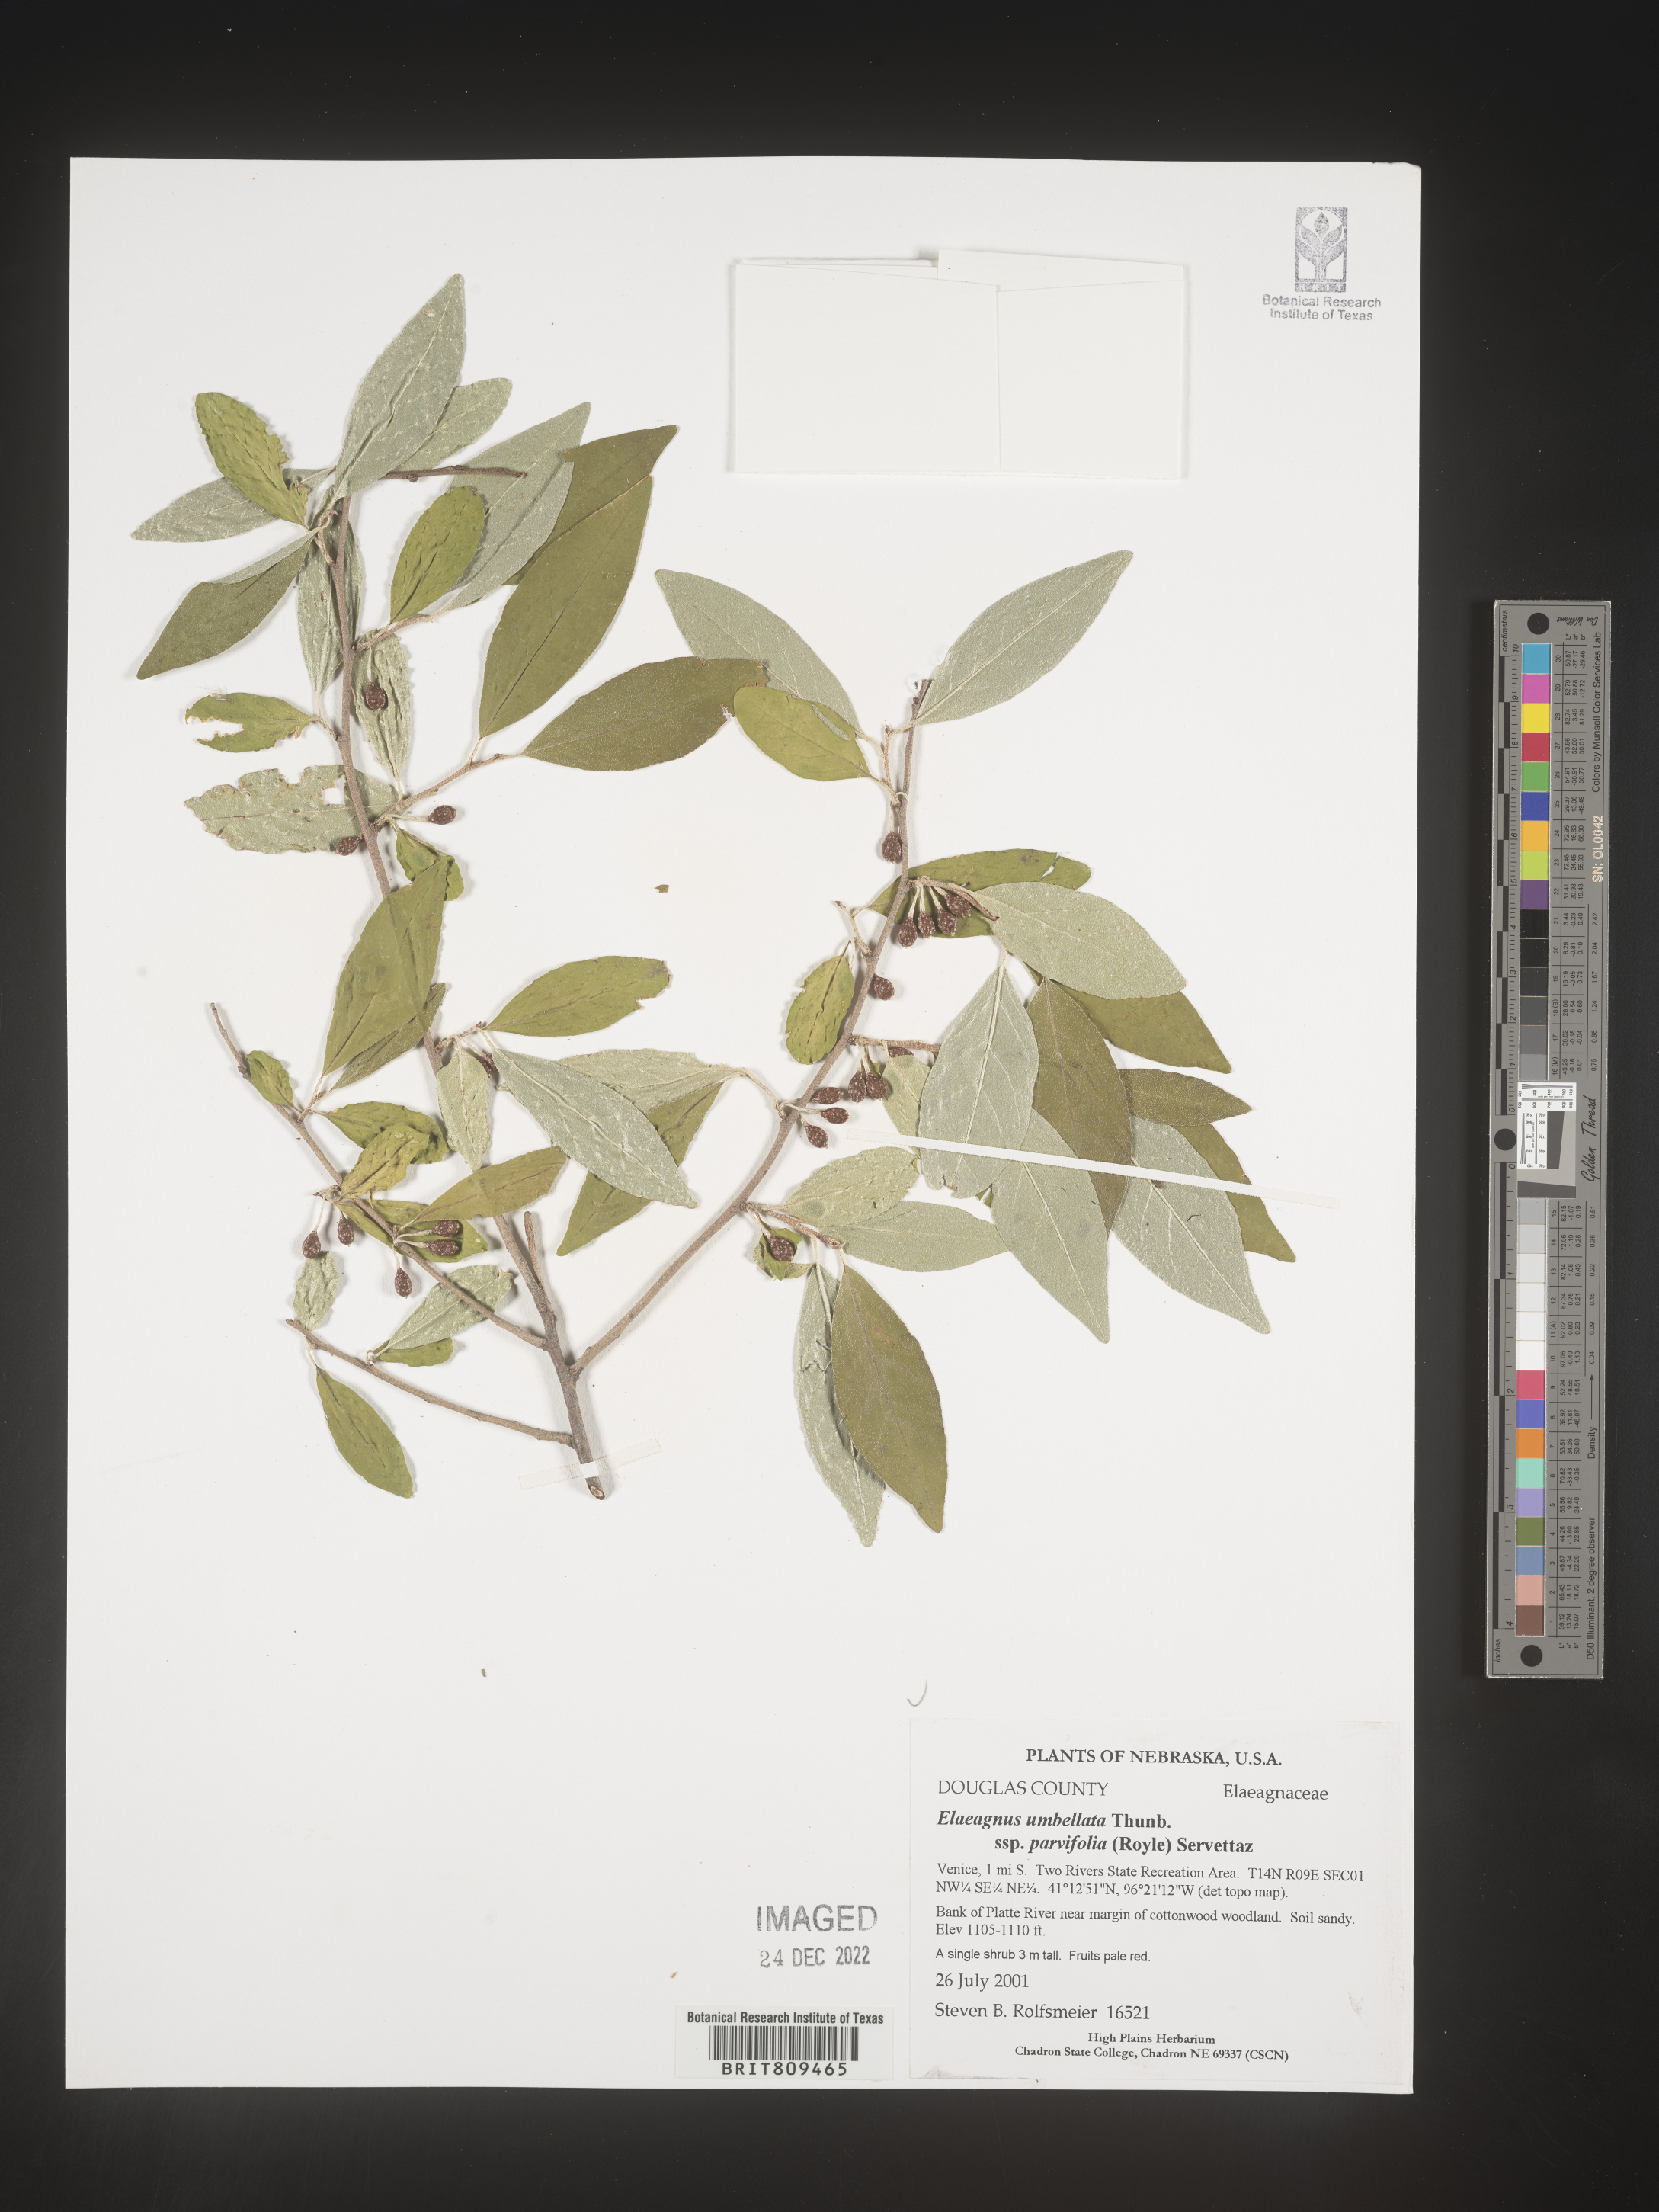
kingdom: Plantae
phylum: Tracheophyta
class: Magnoliopsida
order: Rosales
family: Elaeagnaceae
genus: Elaeagnus
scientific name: Elaeagnus
